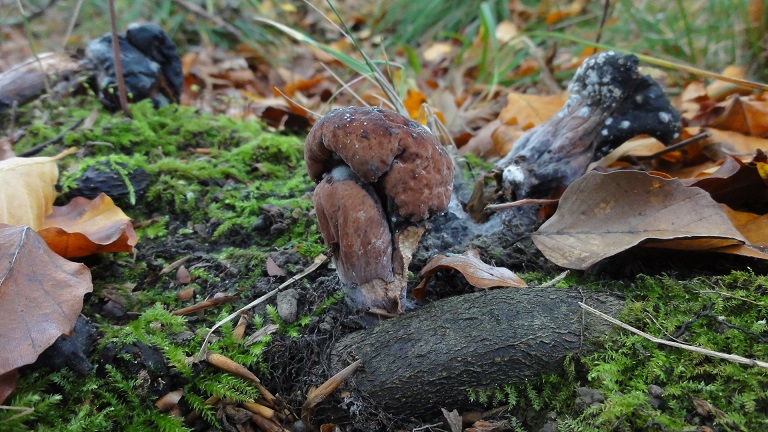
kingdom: Fungi
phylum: Basidiomycota
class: Agaricomycetes
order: Gomphales
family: Clavariadelphaceae
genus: Clavariadelphus
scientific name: Clavariadelphus pistillaris
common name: herkules-kæmpekølle
